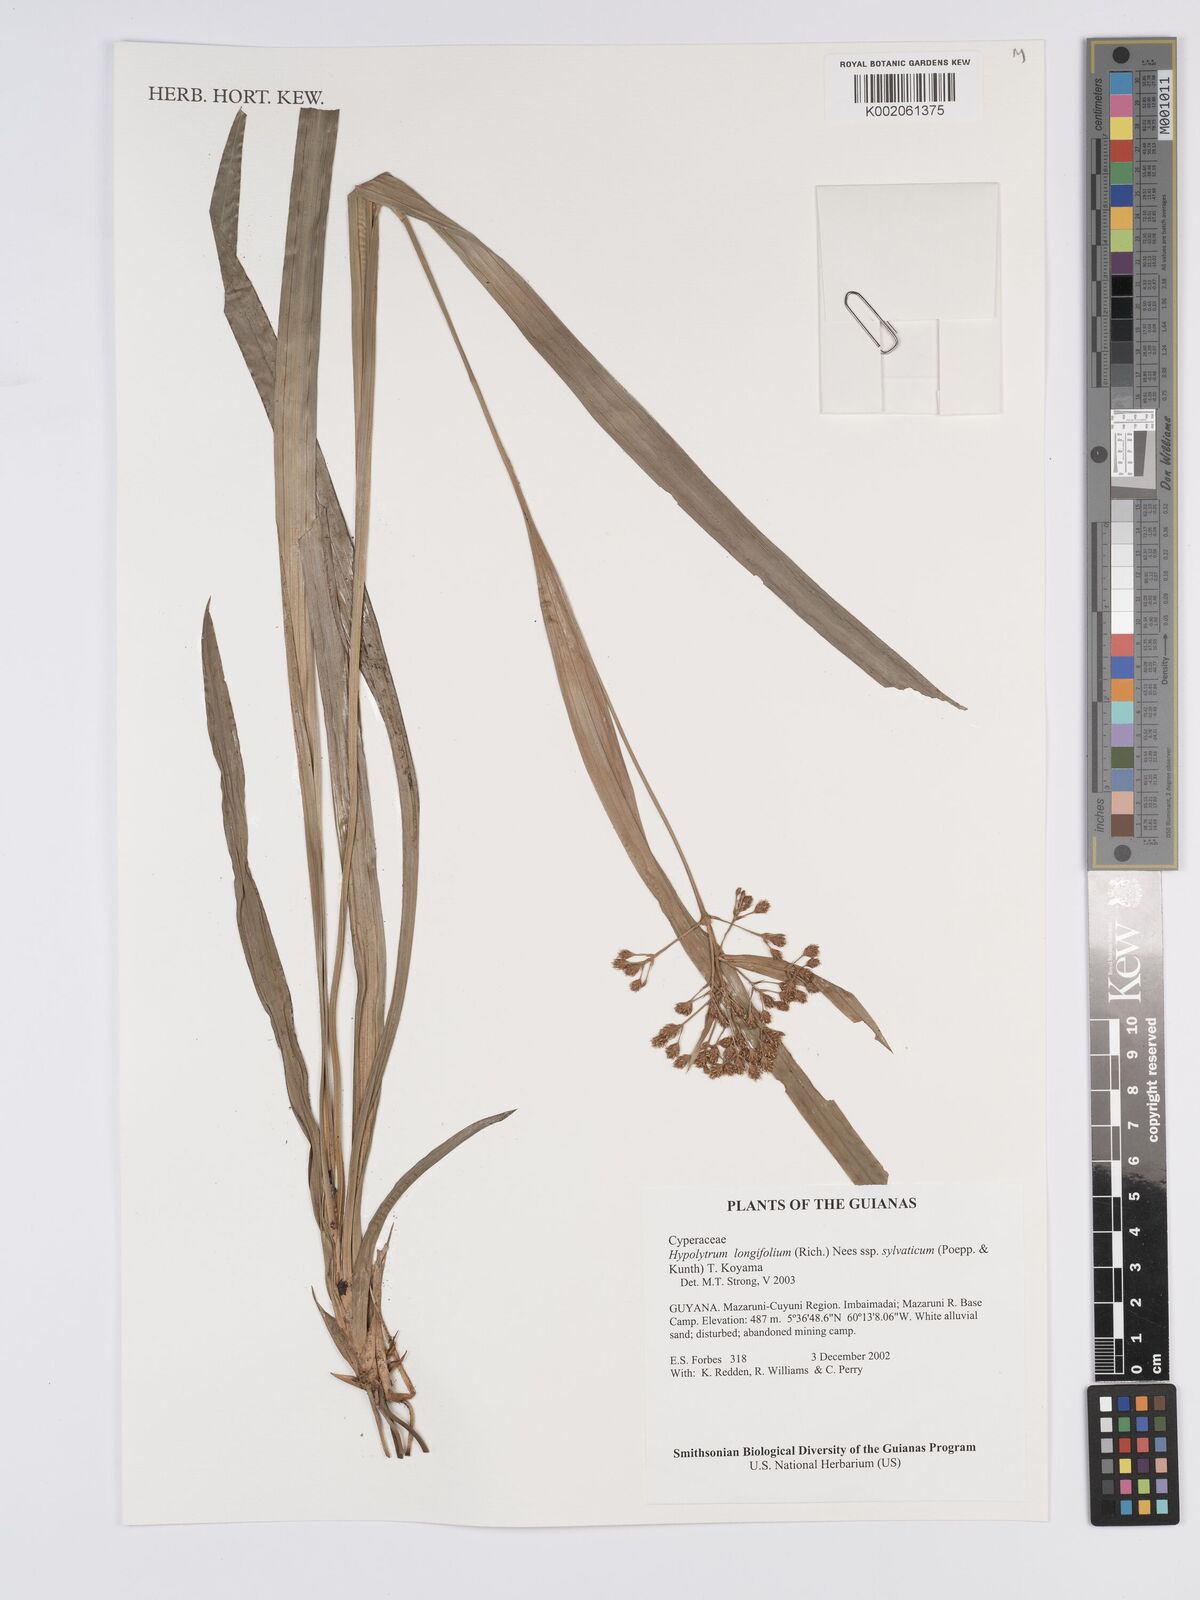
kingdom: Plantae
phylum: Tracheophyta
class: Liliopsida
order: Poales
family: Cyperaceae
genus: Hypolytrum
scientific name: Hypolytrum longifolium
